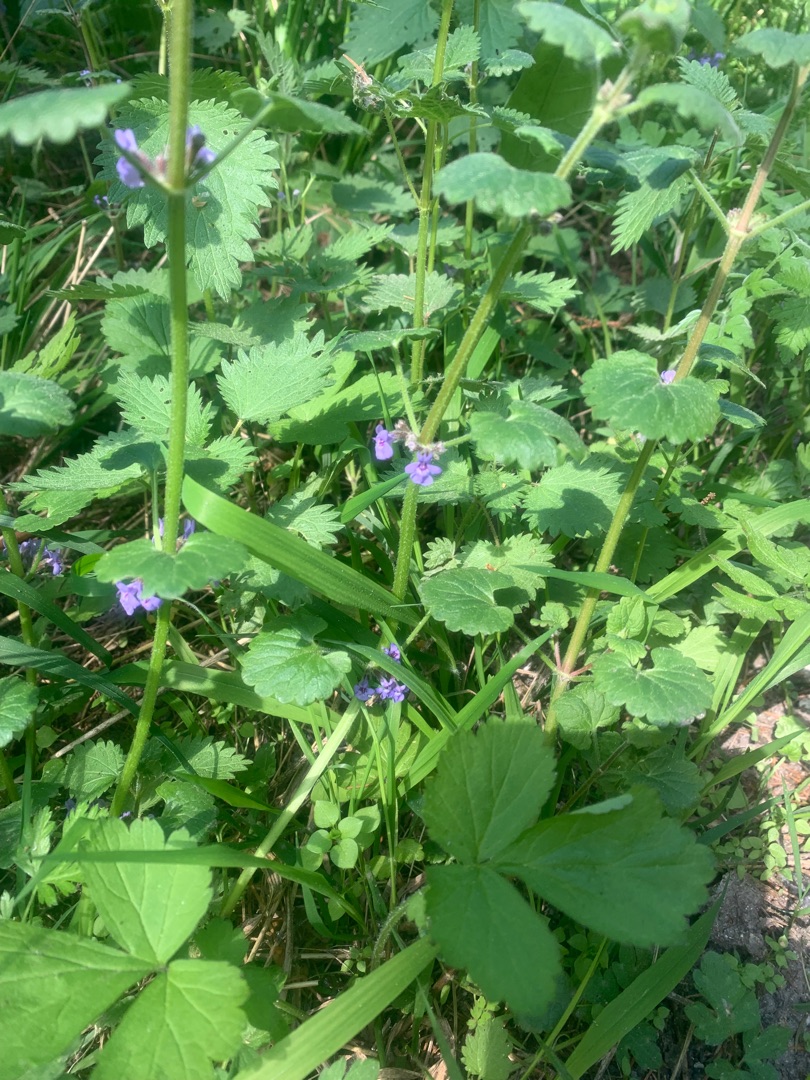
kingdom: Plantae
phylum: Tracheophyta
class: Magnoliopsida
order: Lamiales
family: Lamiaceae
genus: Glechoma
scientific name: Glechoma hederacea
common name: Korsknap
